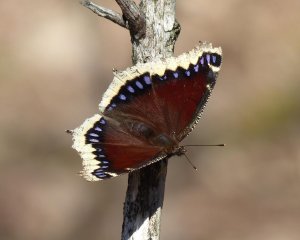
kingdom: Animalia
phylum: Arthropoda
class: Insecta
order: Lepidoptera
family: Nymphalidae
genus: Nymphalis
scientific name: Nymphalis antiopa
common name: Mourning Cloak
